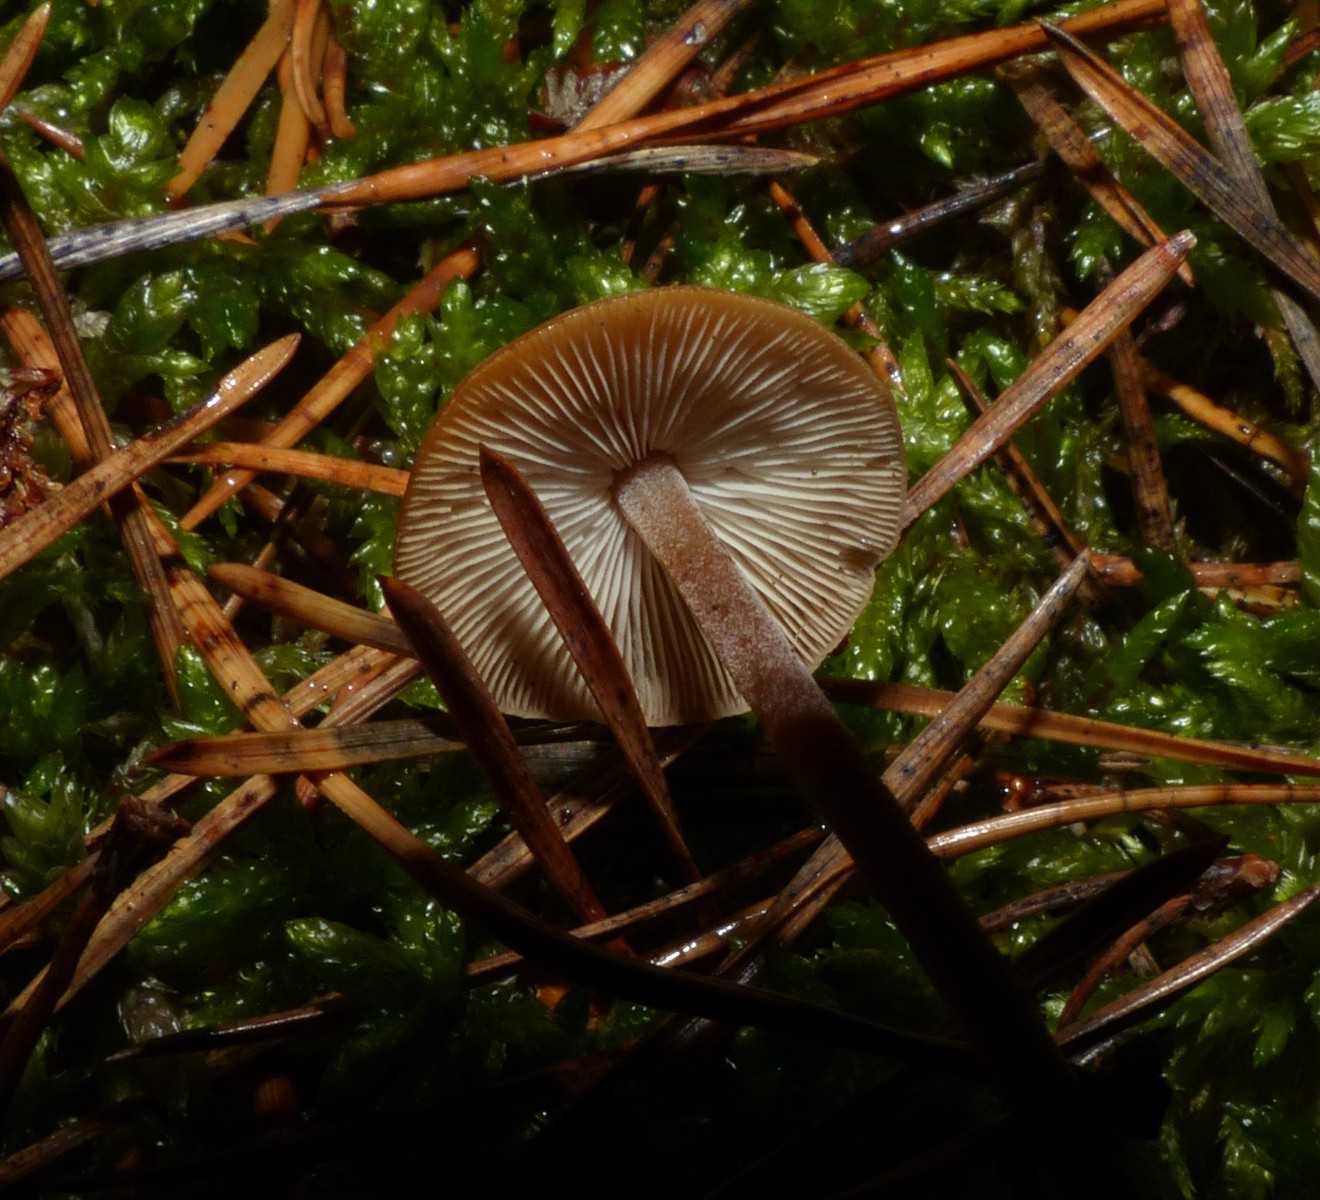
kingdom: Fungi
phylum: Basidiomycota
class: Agaricomycetes
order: Agaricales
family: Marasmiaceae
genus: Baeospora
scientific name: Baeospora myosura
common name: koglebruskhat
